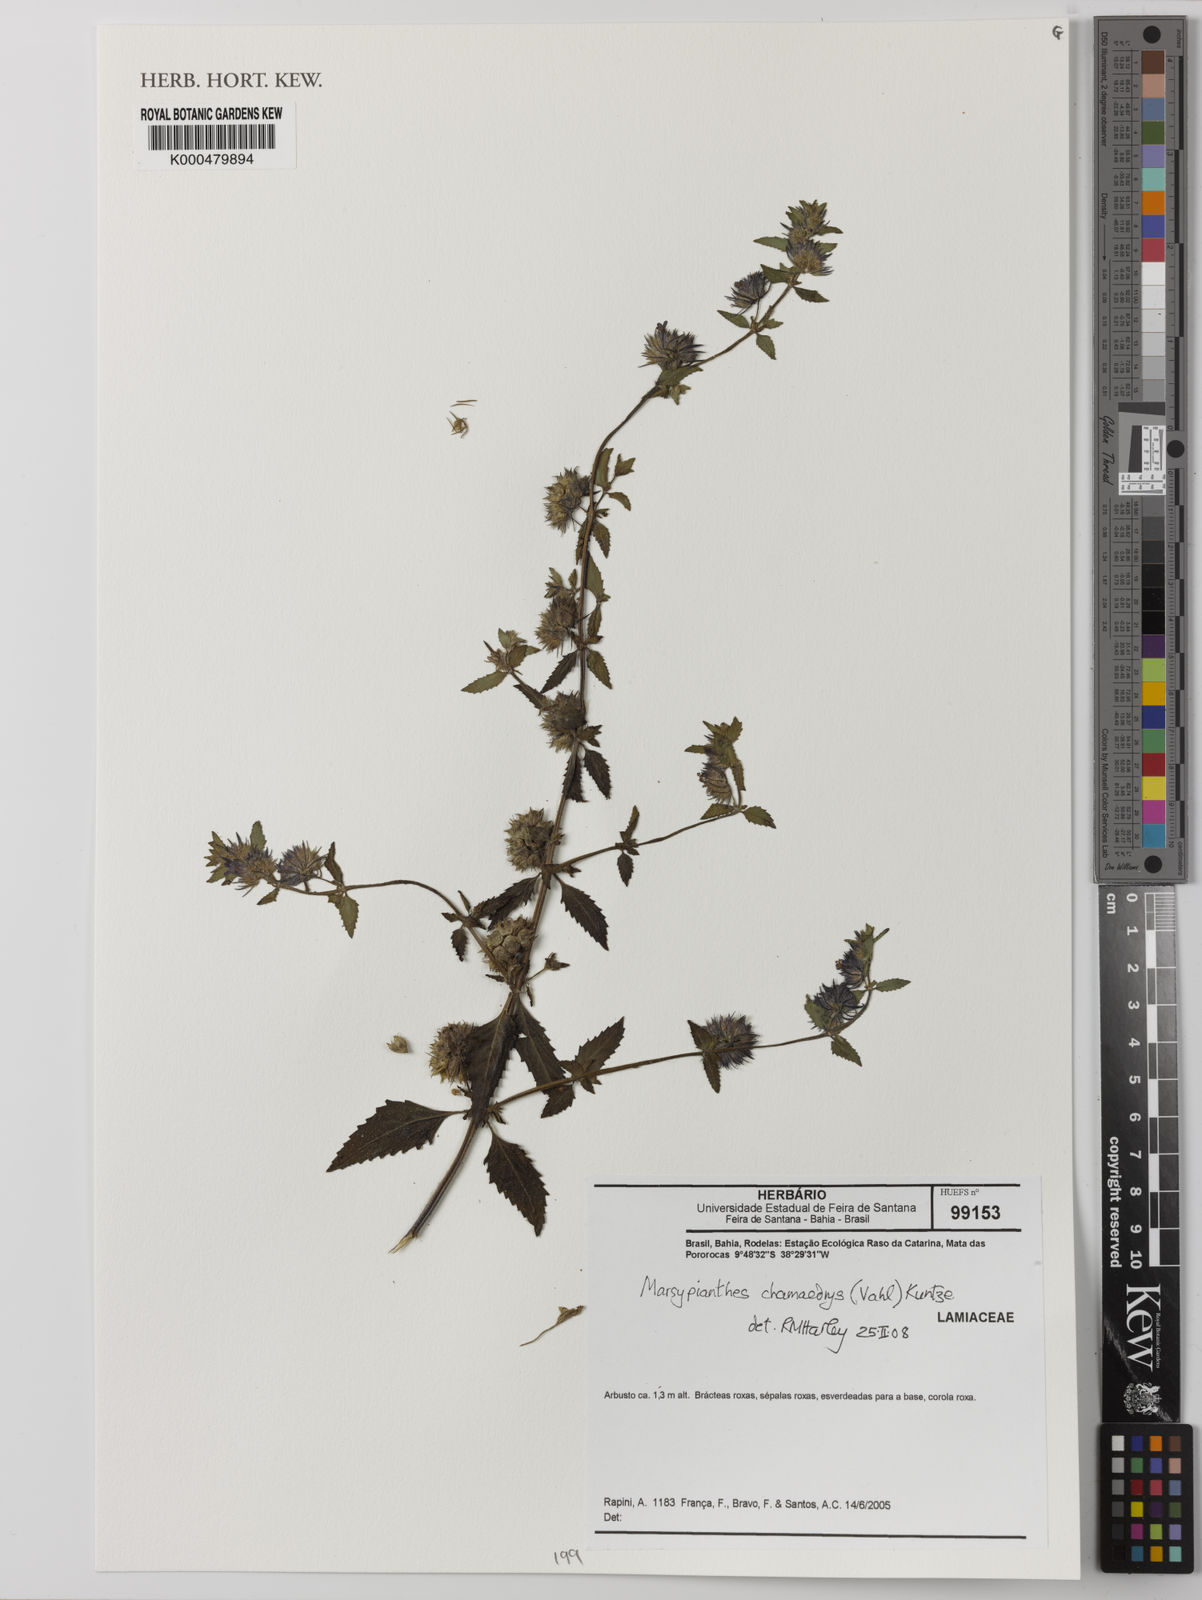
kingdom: Plantae
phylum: Tracheophyta
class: Magnoliopsida
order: Lamiales
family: Lamiaceae
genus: Marsypianthes
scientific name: Marsypianthes chamaedrys
